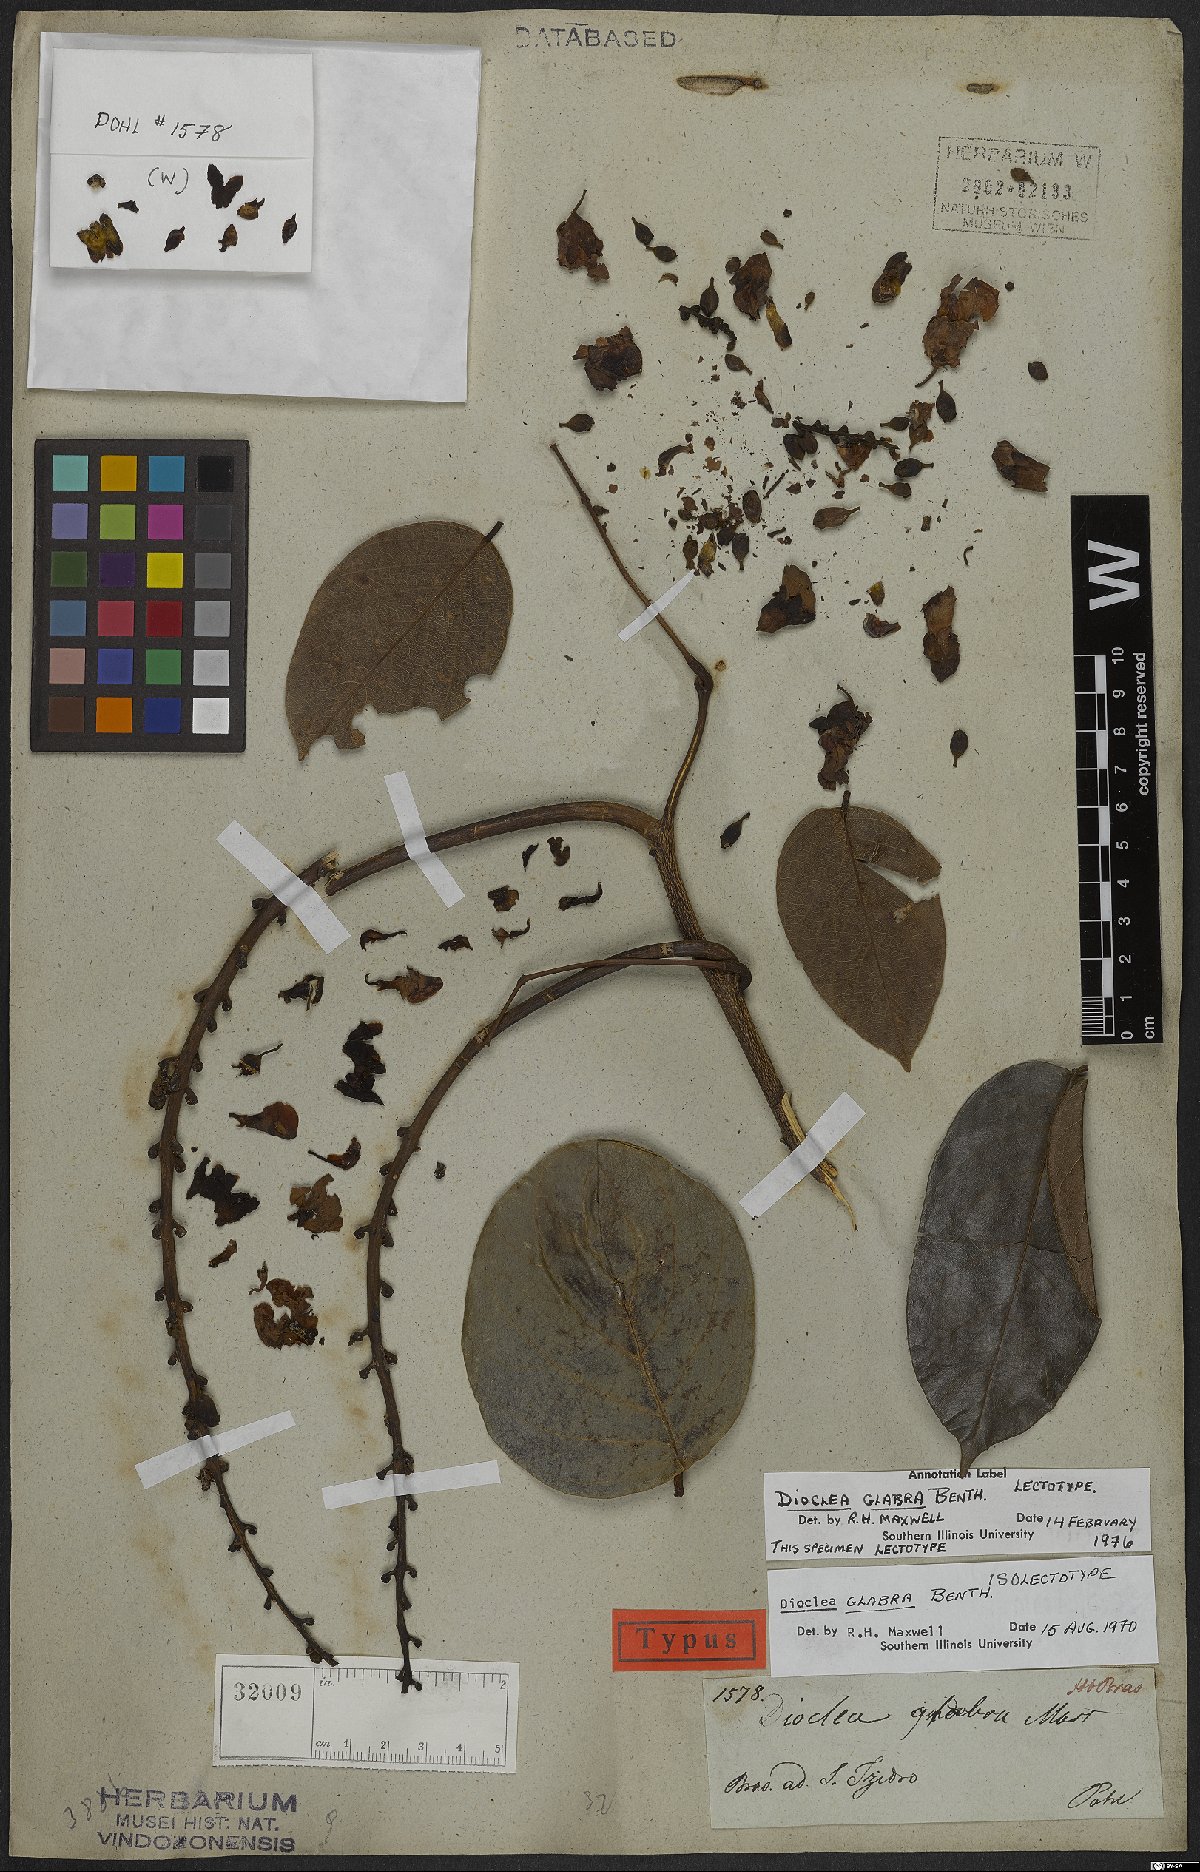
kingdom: Plantae
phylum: Tracheophyta
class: Magnoliopsida
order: Fabales
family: Fabaceae
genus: Macropsychanthus
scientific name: Macropsychanthus glaber
